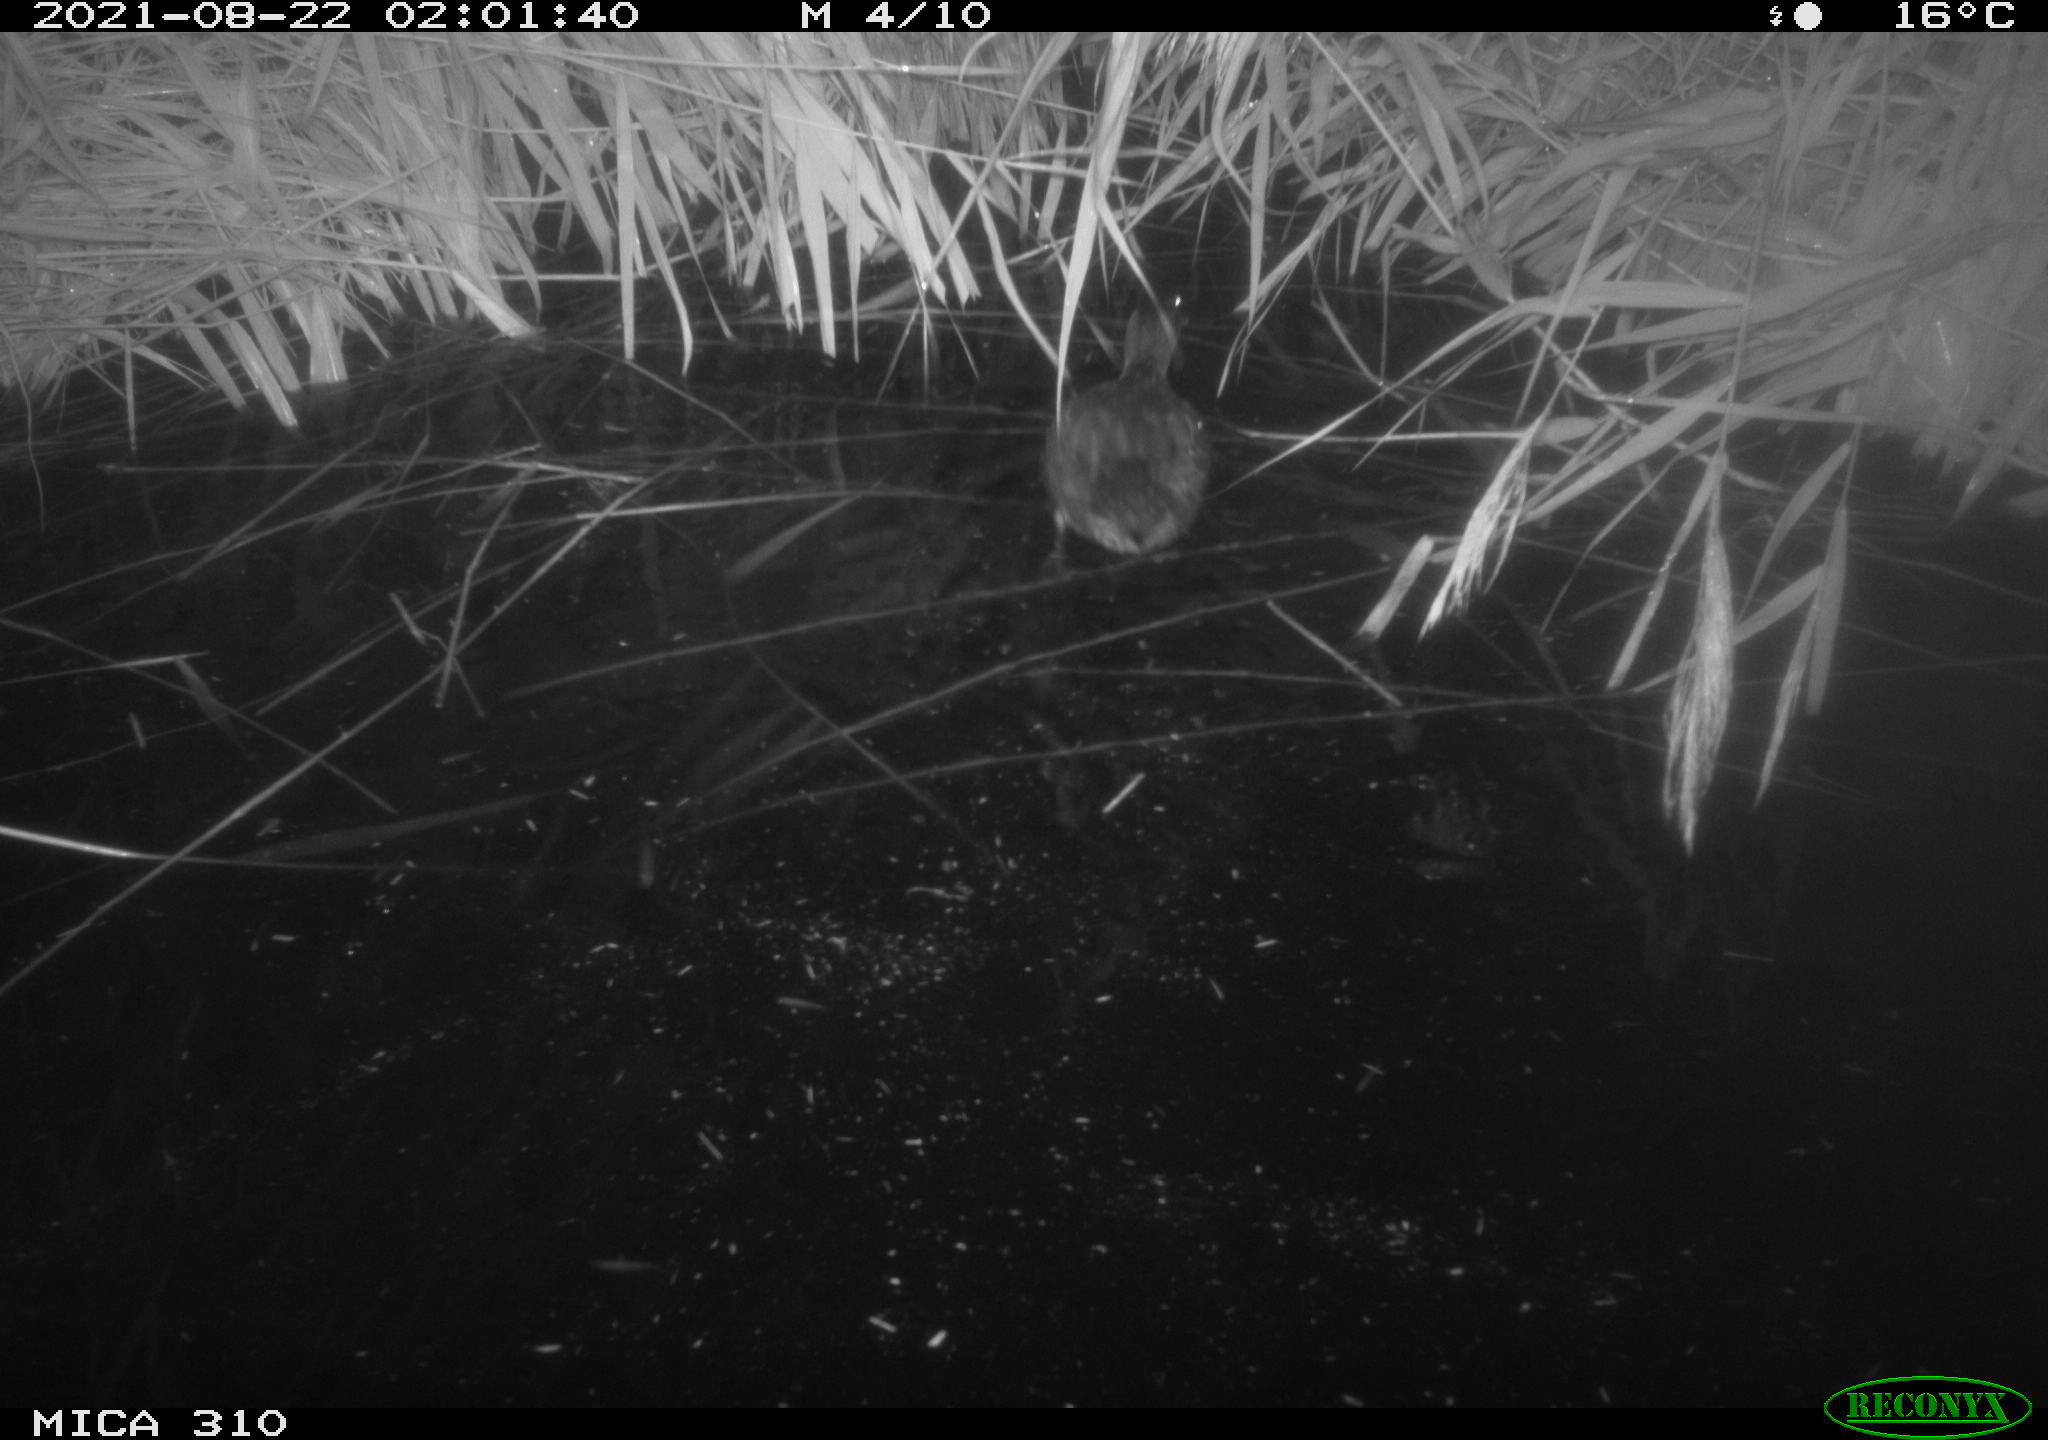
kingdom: Animalia
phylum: Chordata
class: Aves
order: Gruiformes
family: Rallidae
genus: Gallinula
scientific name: Gallinula chloropus
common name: Common moorhen
